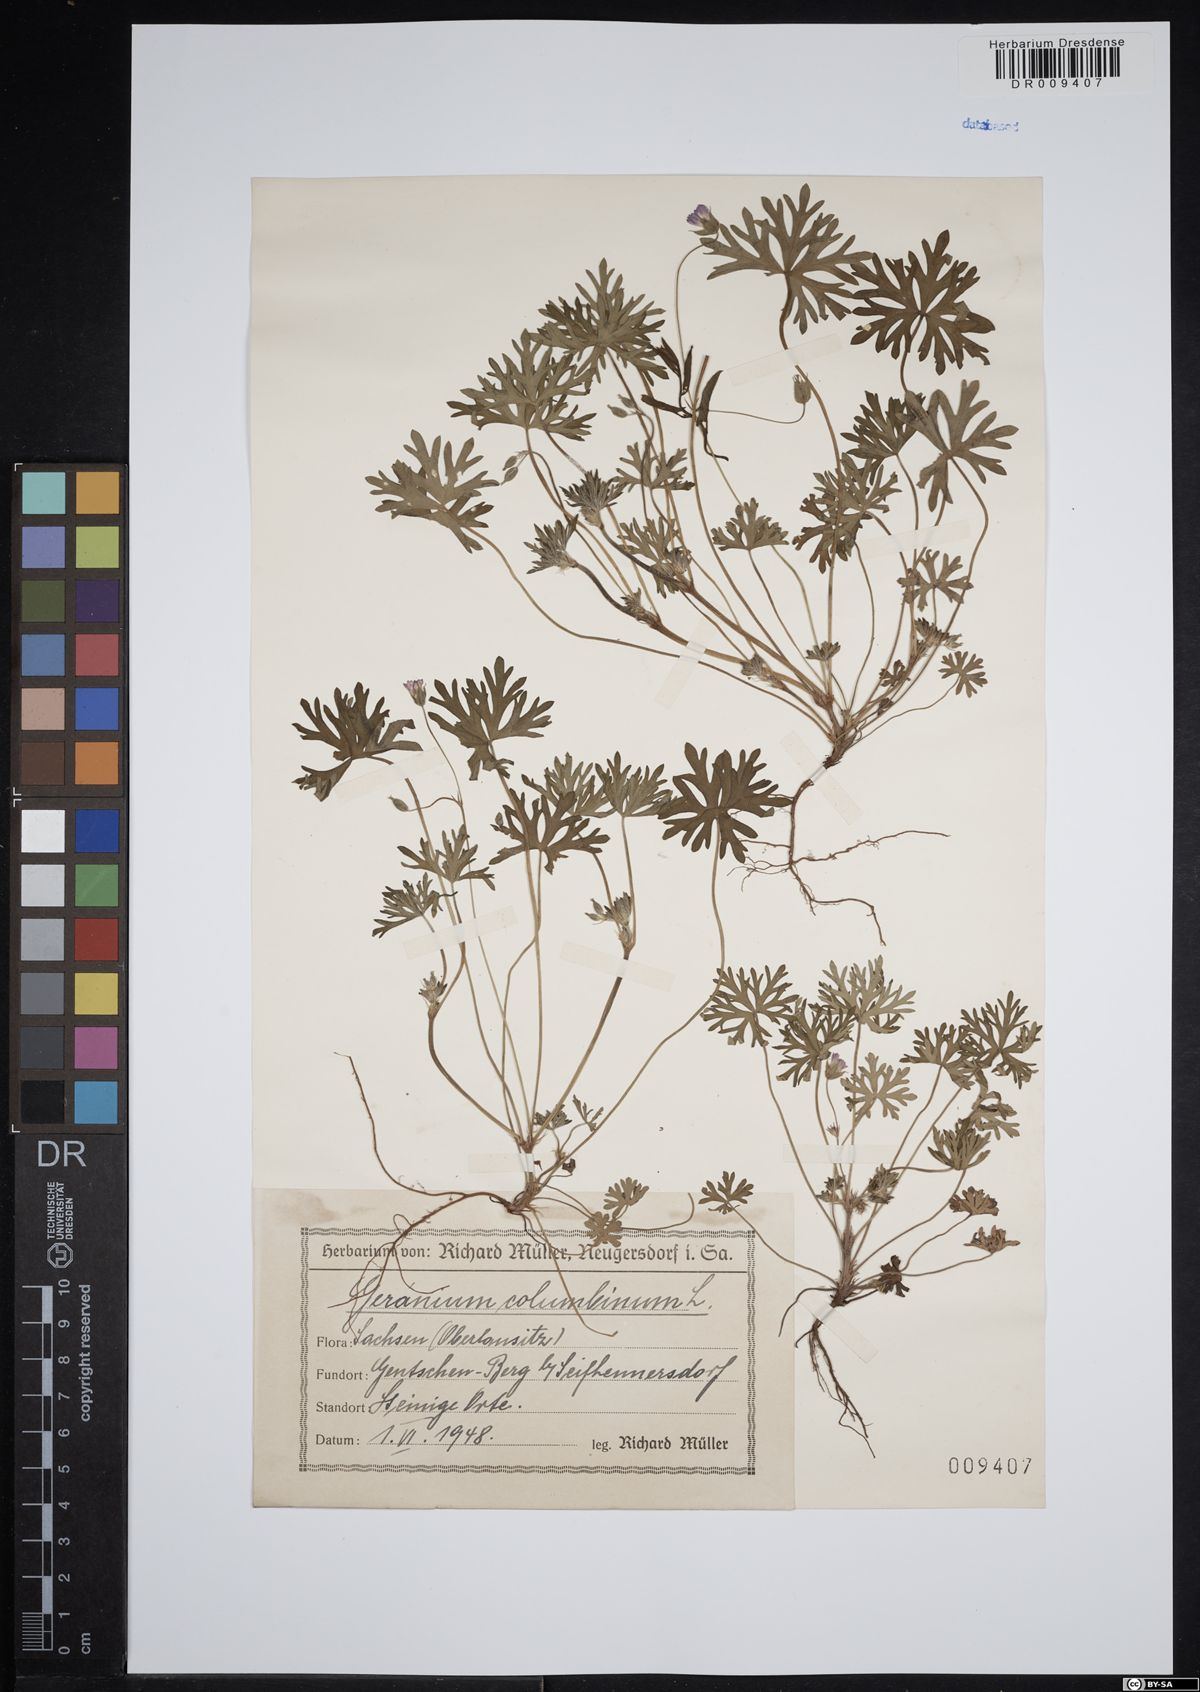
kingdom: Plantae
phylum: Tracheophyta
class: Magnoliopsida
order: Geraniales
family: Geraniaceae
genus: Geranium
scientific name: Geranium columbinum
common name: Long-stalked crane's-bill
